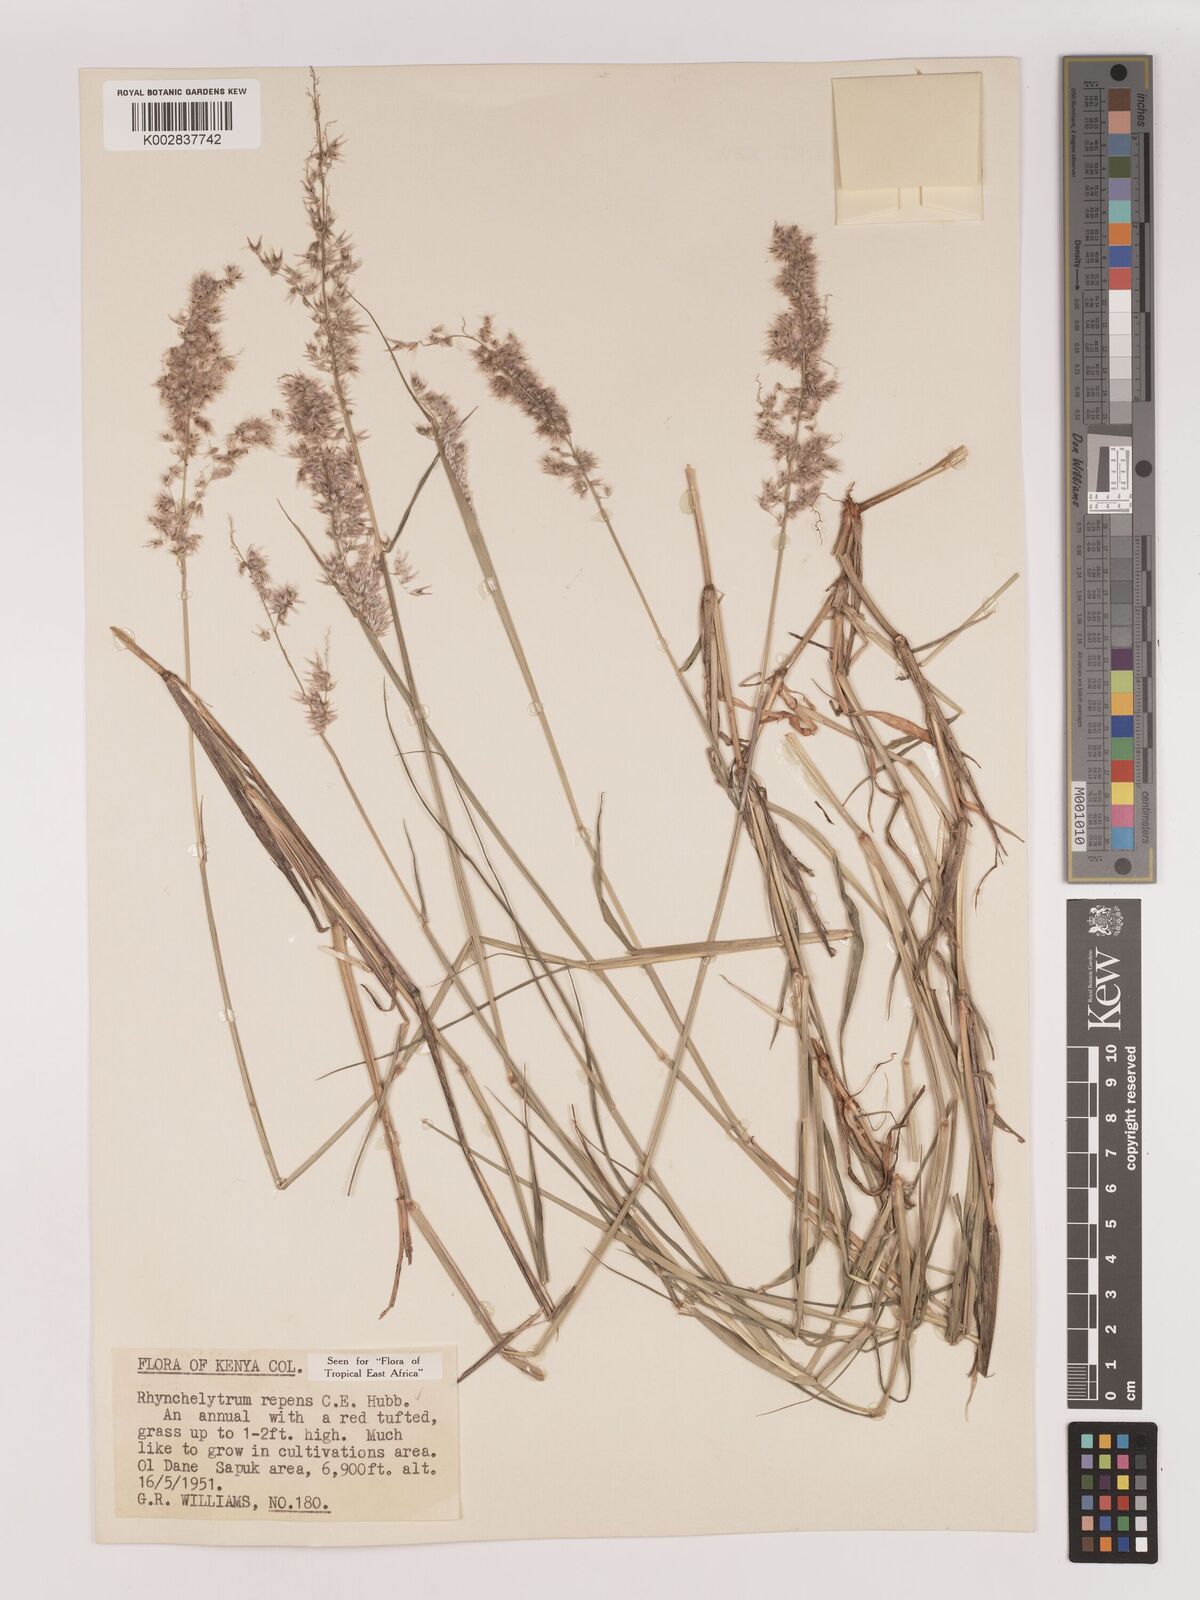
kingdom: Plantae
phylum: Tracheophyta
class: Liliopsida
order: Poales
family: Poaceae
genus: Melinis
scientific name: Melinis repens
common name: Rose natal grass
